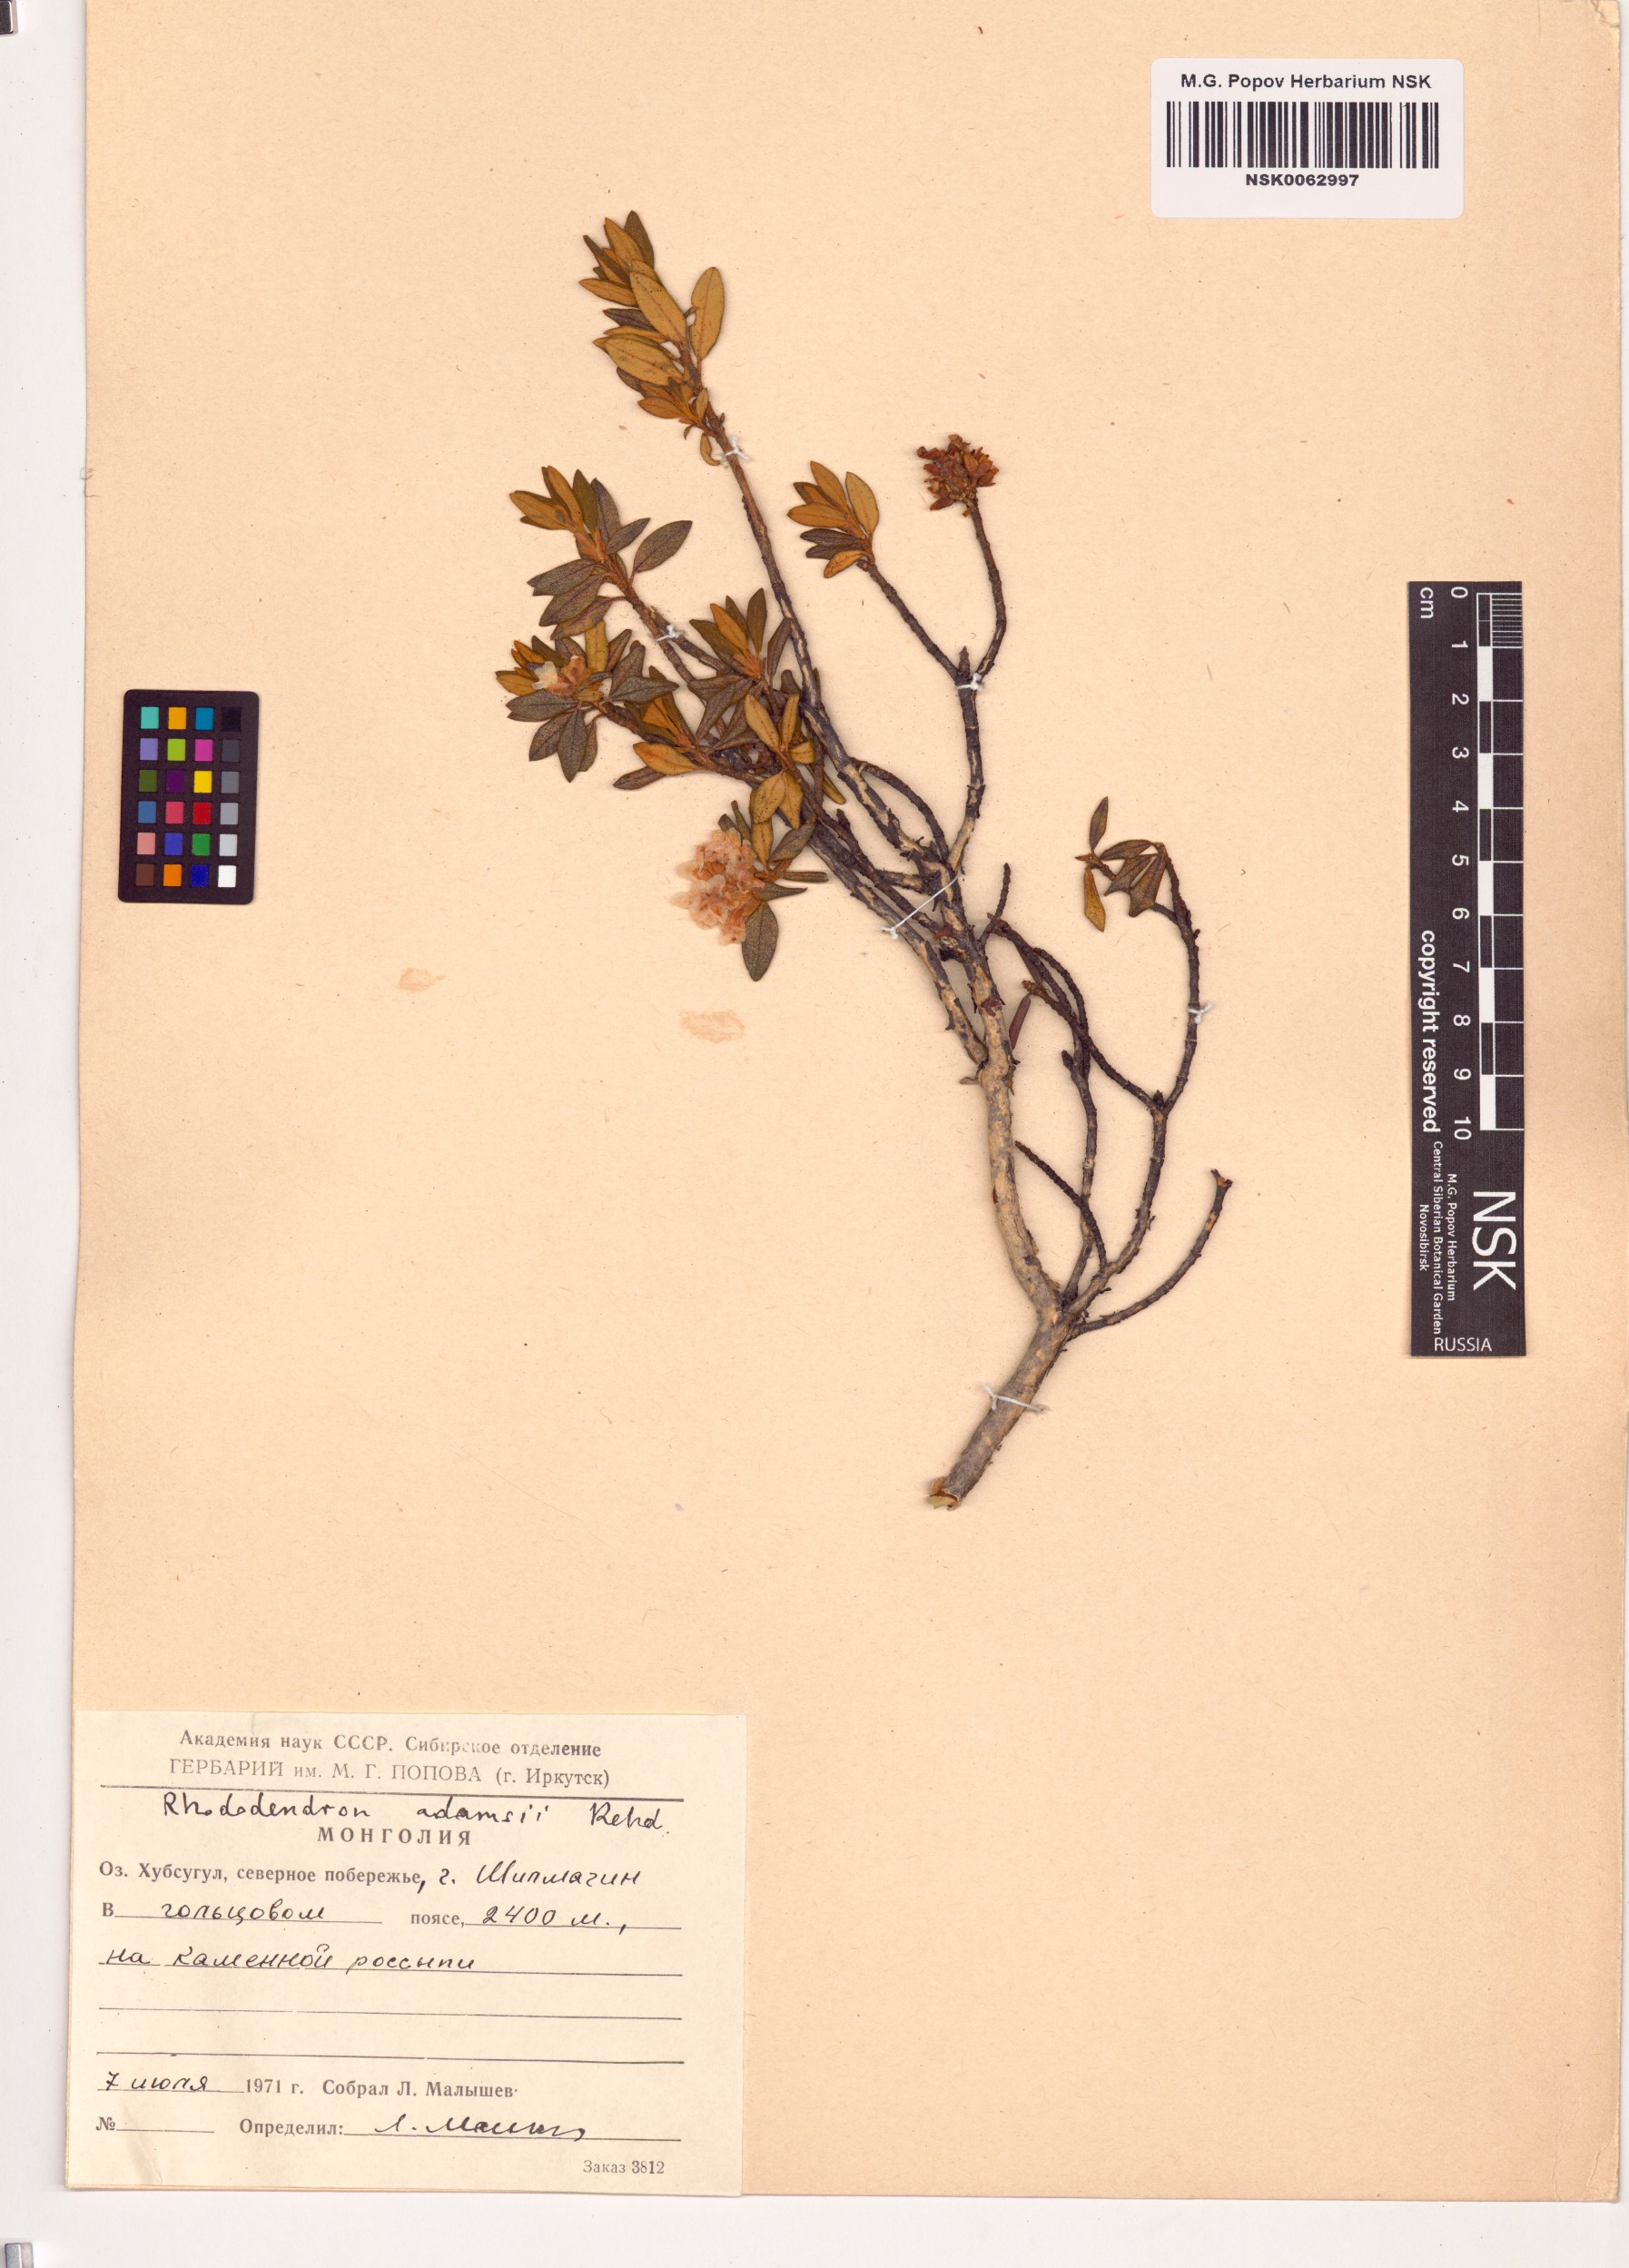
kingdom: Plantae
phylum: Tracheophyta
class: Magnoliopsida
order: Ericales
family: Ericaceae
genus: Rhododendron
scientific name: Rhododendron adamsii
